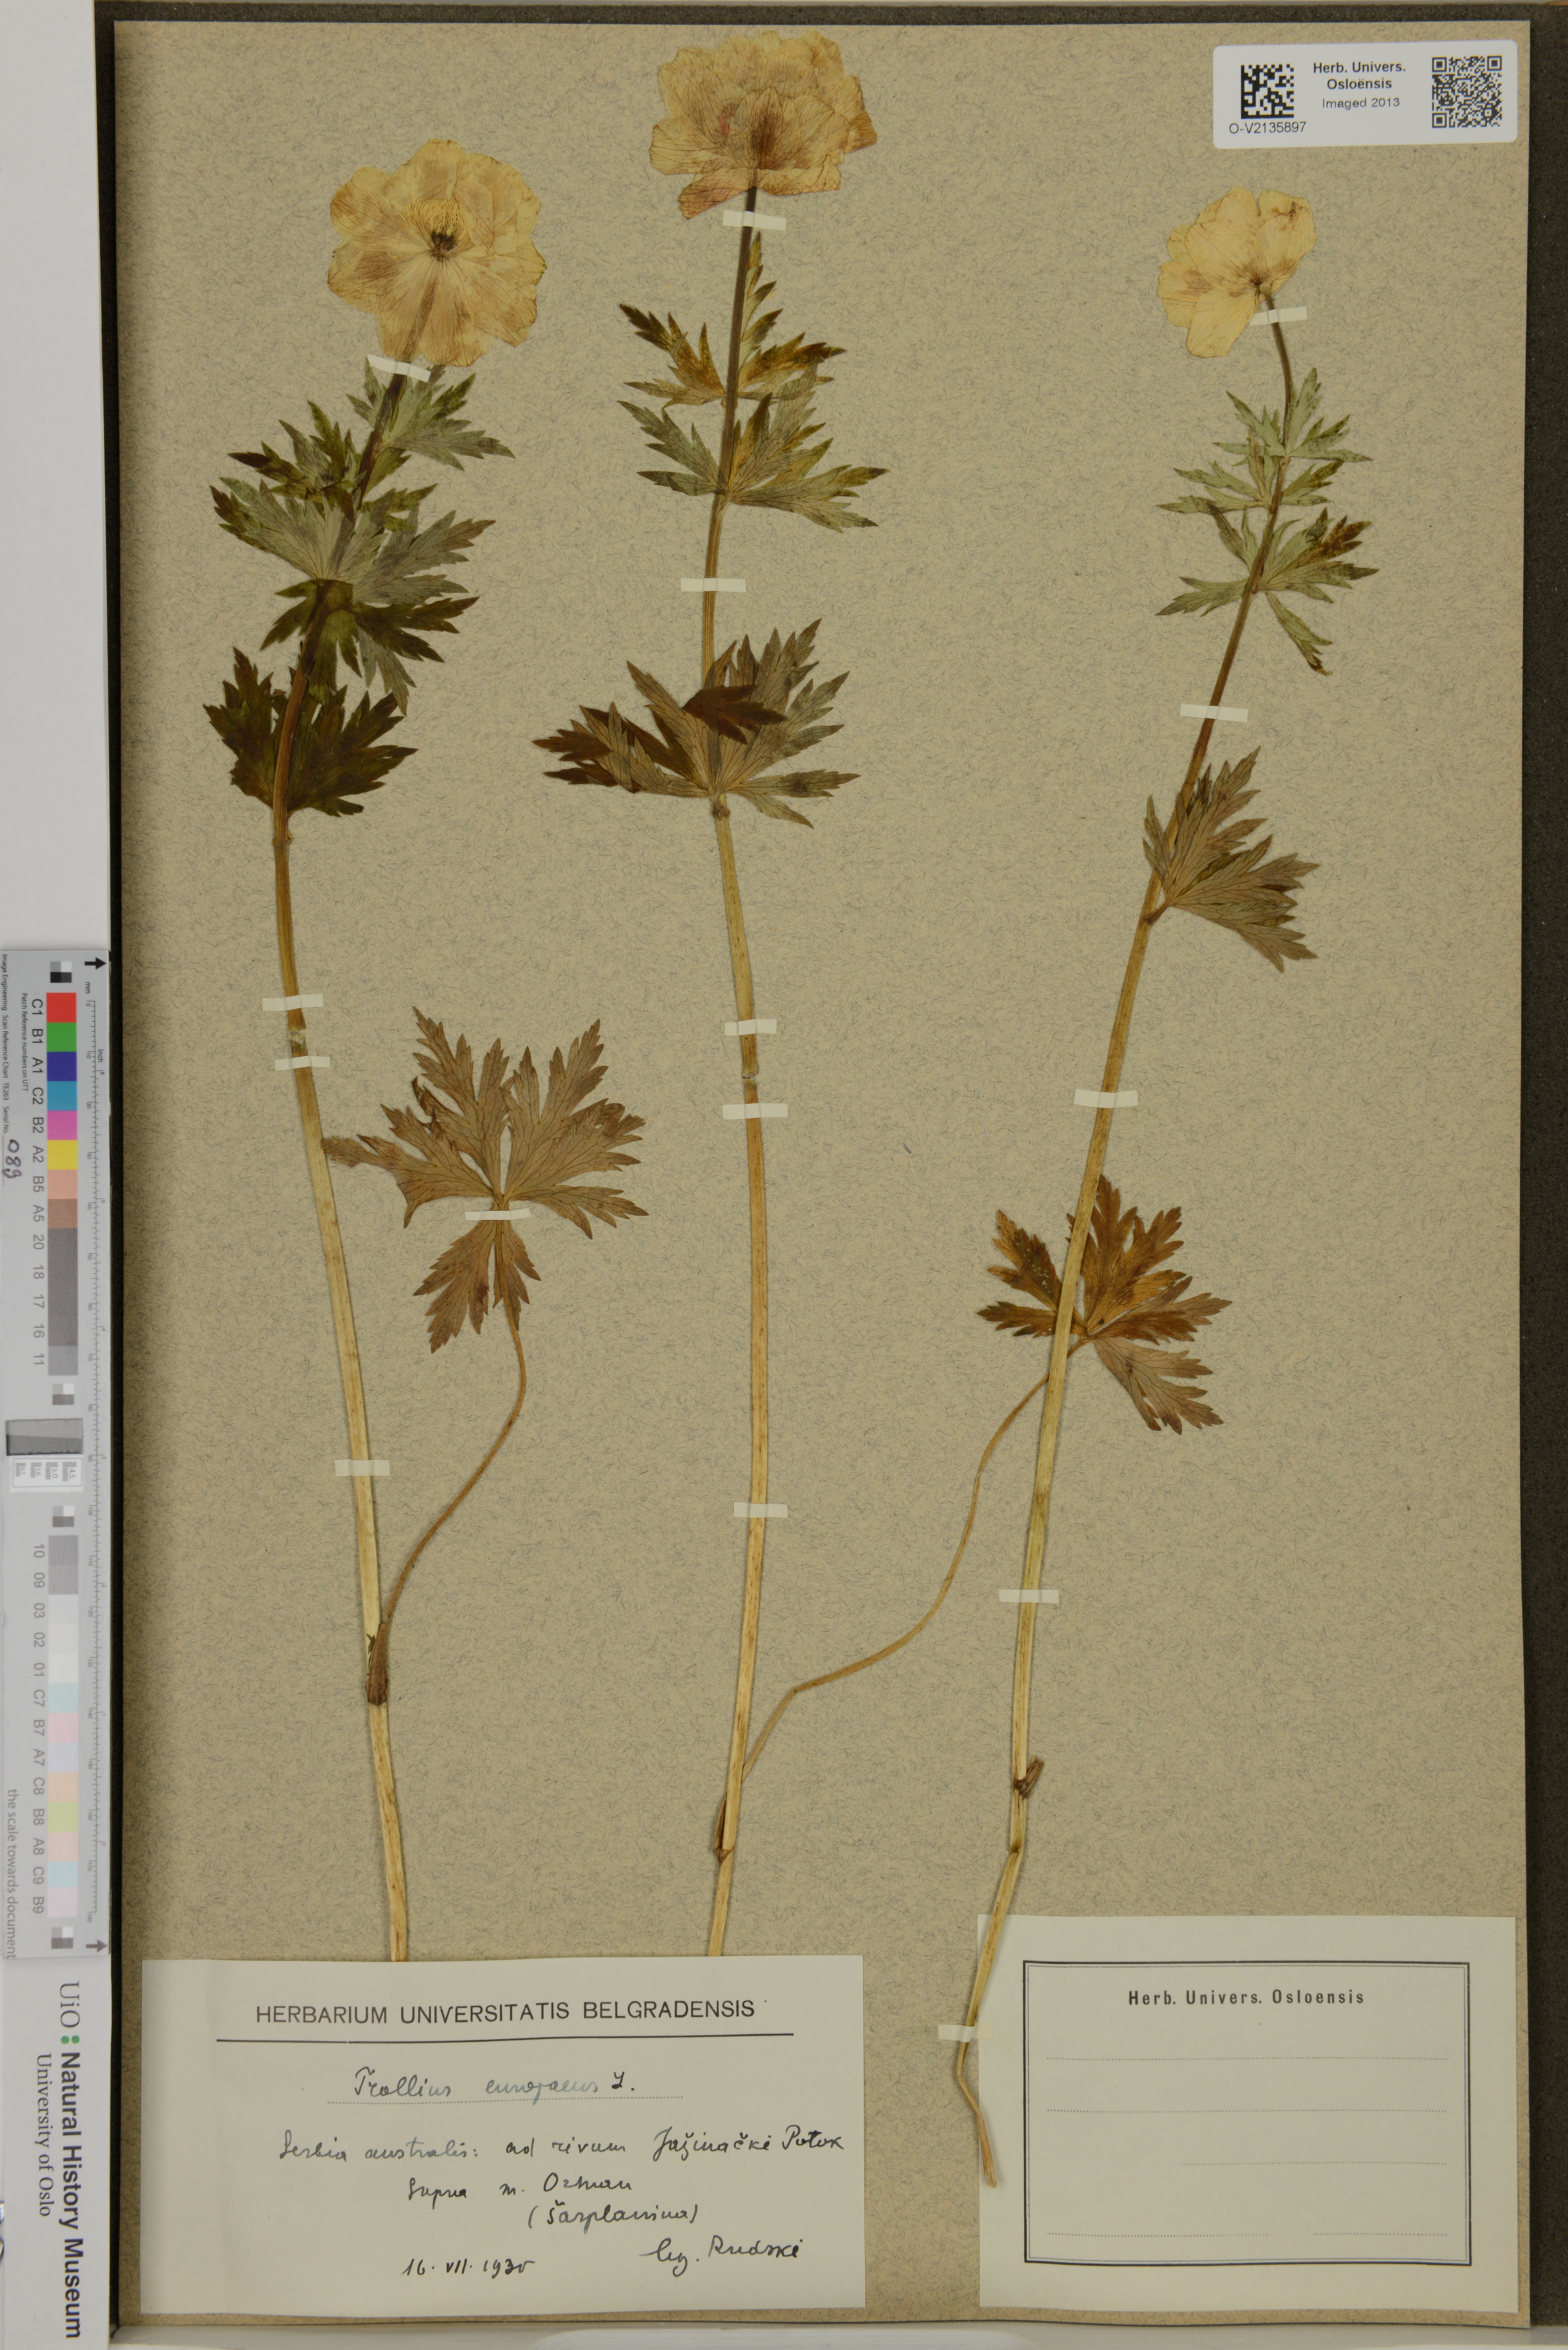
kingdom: Plantae
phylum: Tracheophyta
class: Magnoliopsida
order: Ranunculales
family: Ranunculaceae
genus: Trollius
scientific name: Trollius europaeus
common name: European globeflower
